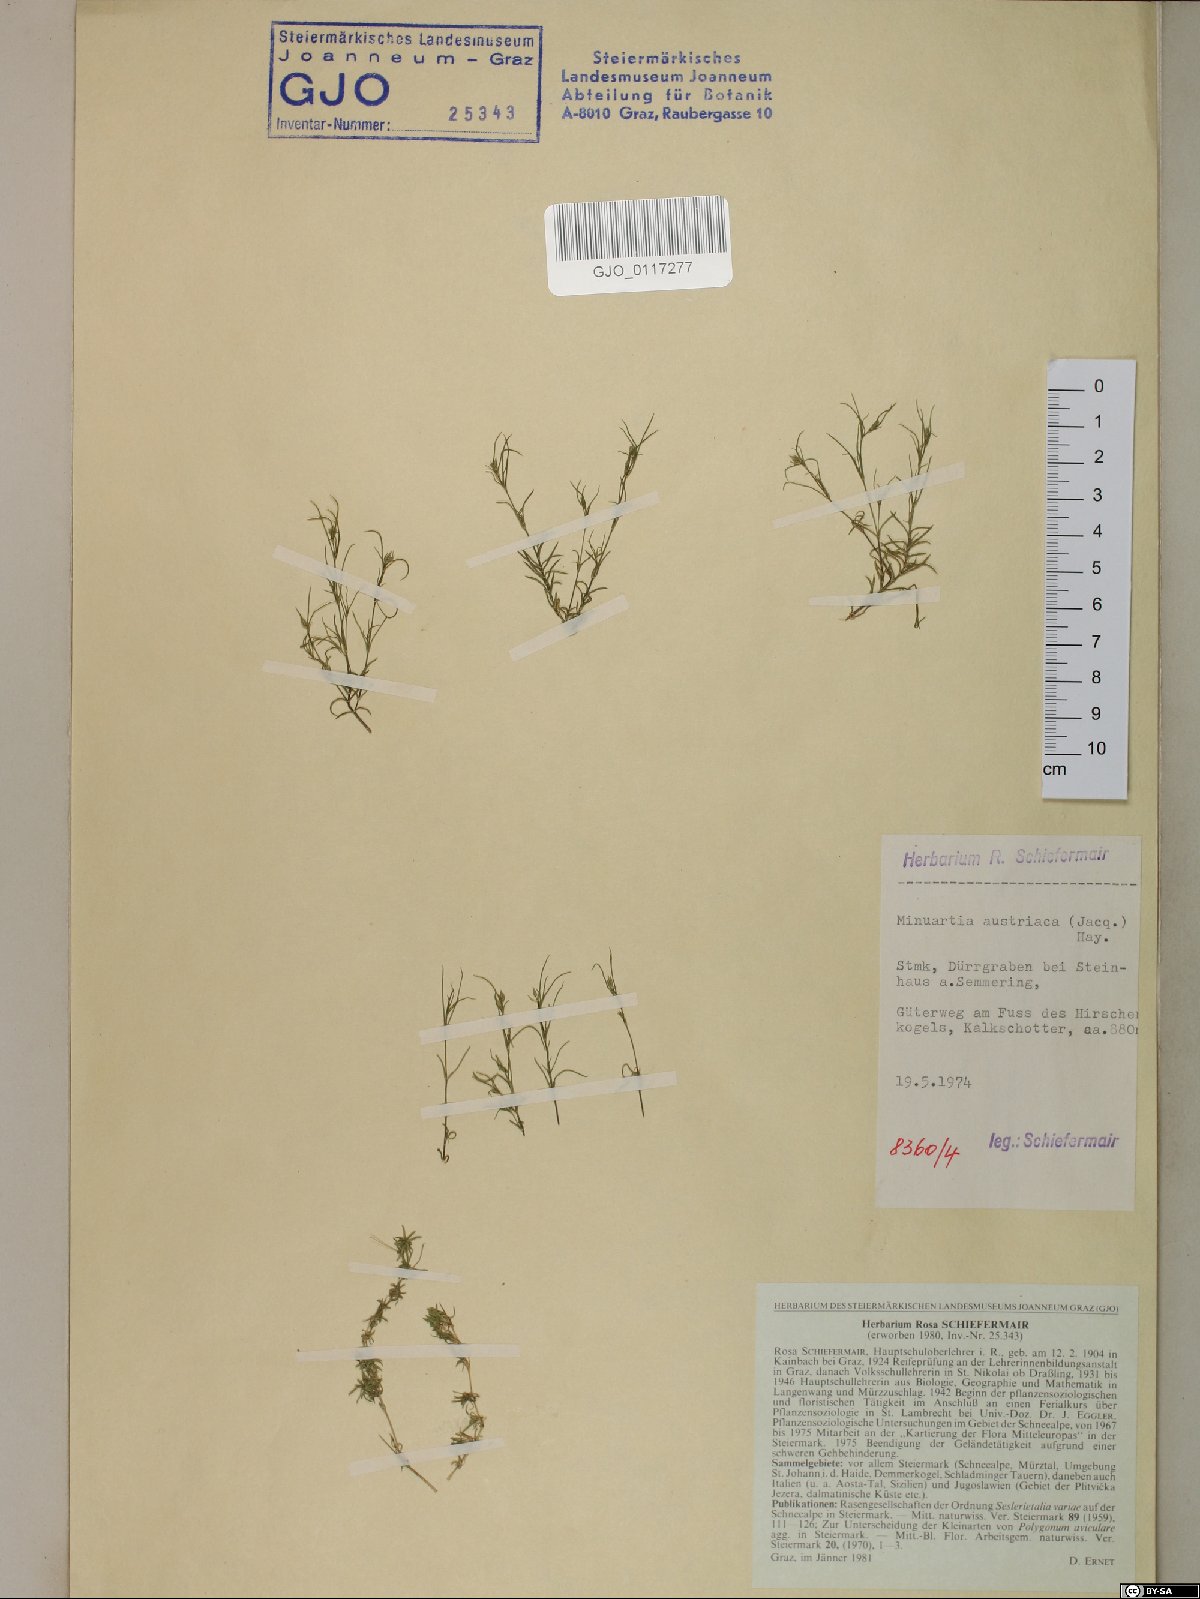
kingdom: Plantae
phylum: Tracheophyta
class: Magnoliopsida
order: Caryophyllales
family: Caryophyllaceae
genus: Sabulina
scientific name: Sabulina austriaca
